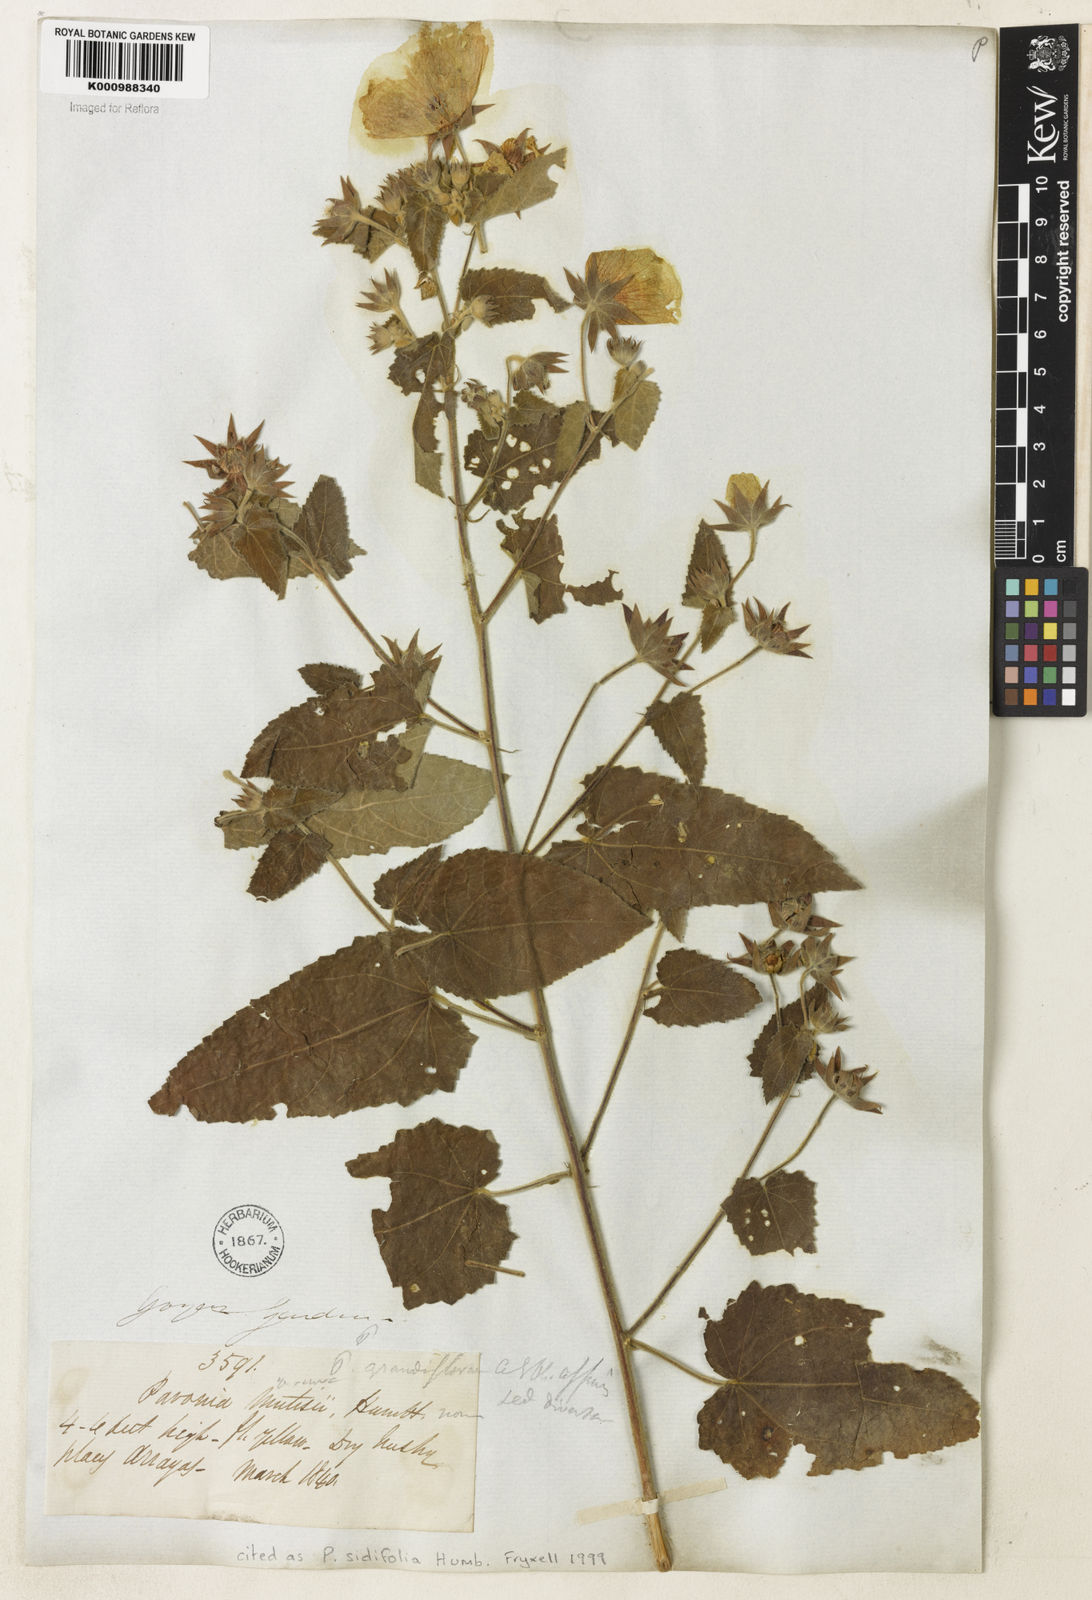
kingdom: Plantae
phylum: Tracheophyta
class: Magnoliopsida
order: Malvales
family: Malvaceae
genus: Pavonia
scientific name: Pavonia sidifolia
